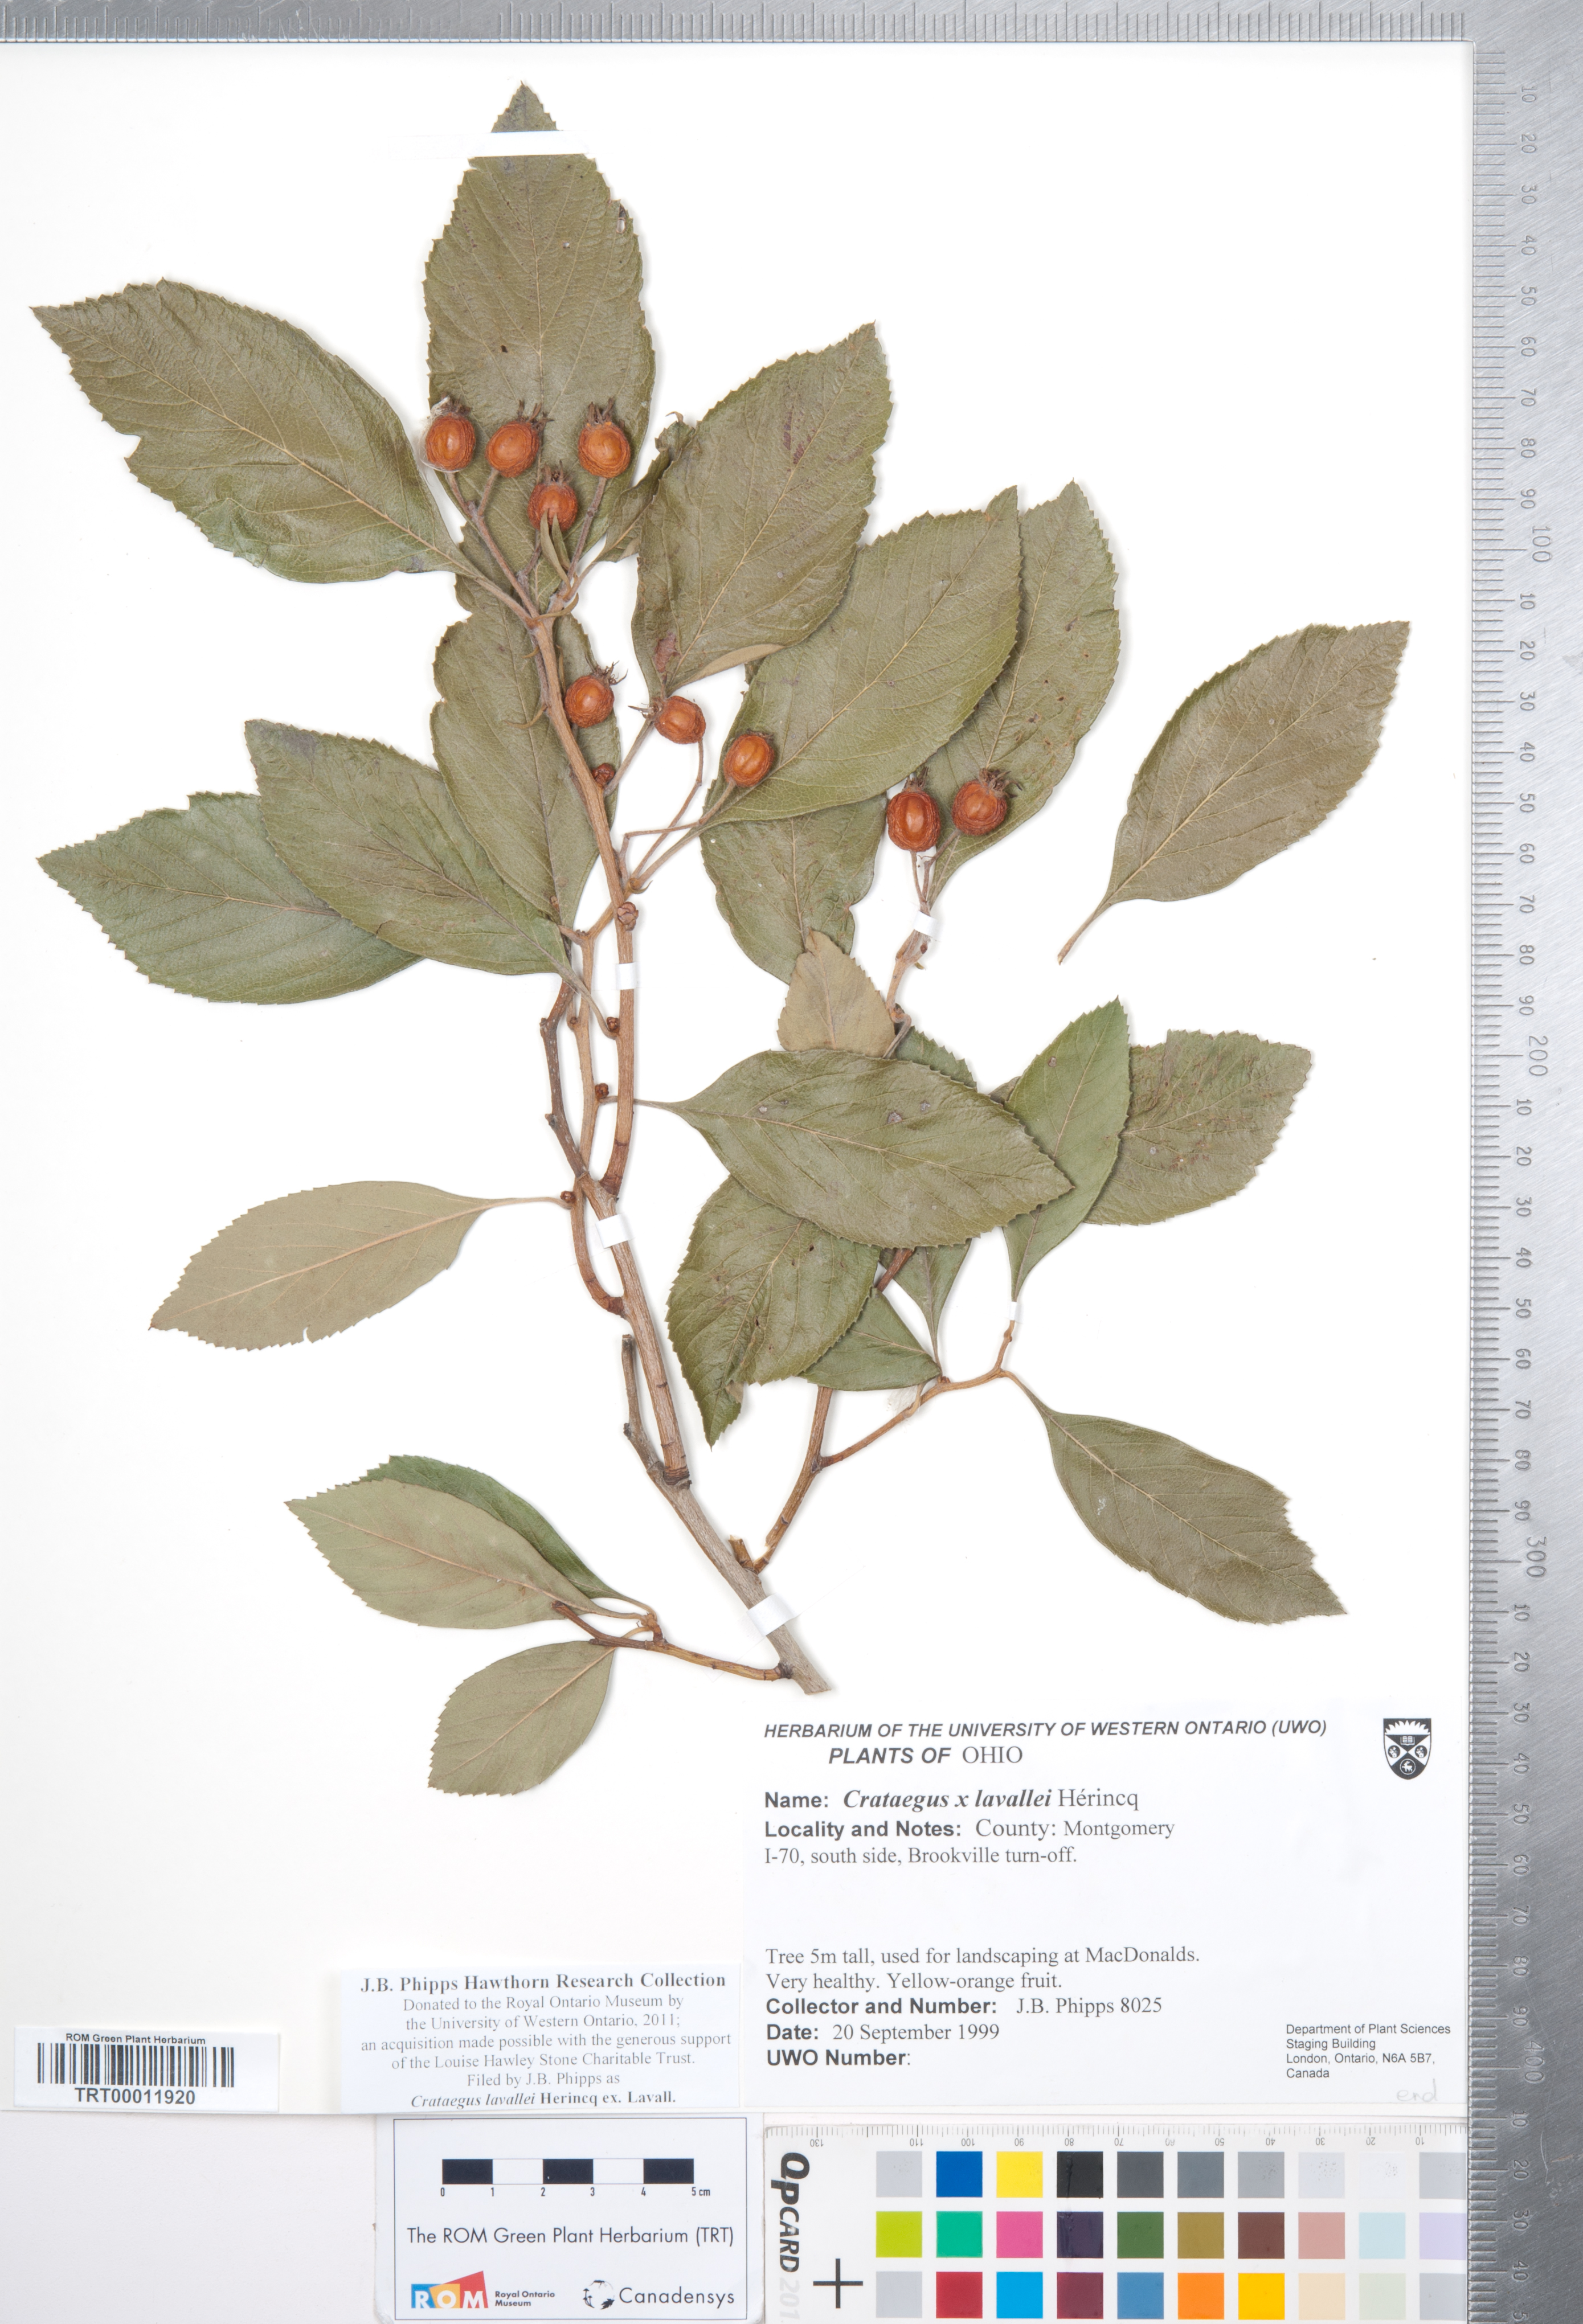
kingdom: Plantae
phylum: Tracheophyta
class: Magnoliopsida
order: Rosales
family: Rosaceae
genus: Crataegus
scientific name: Crataegus lavallei
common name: Lavell hawthorn
